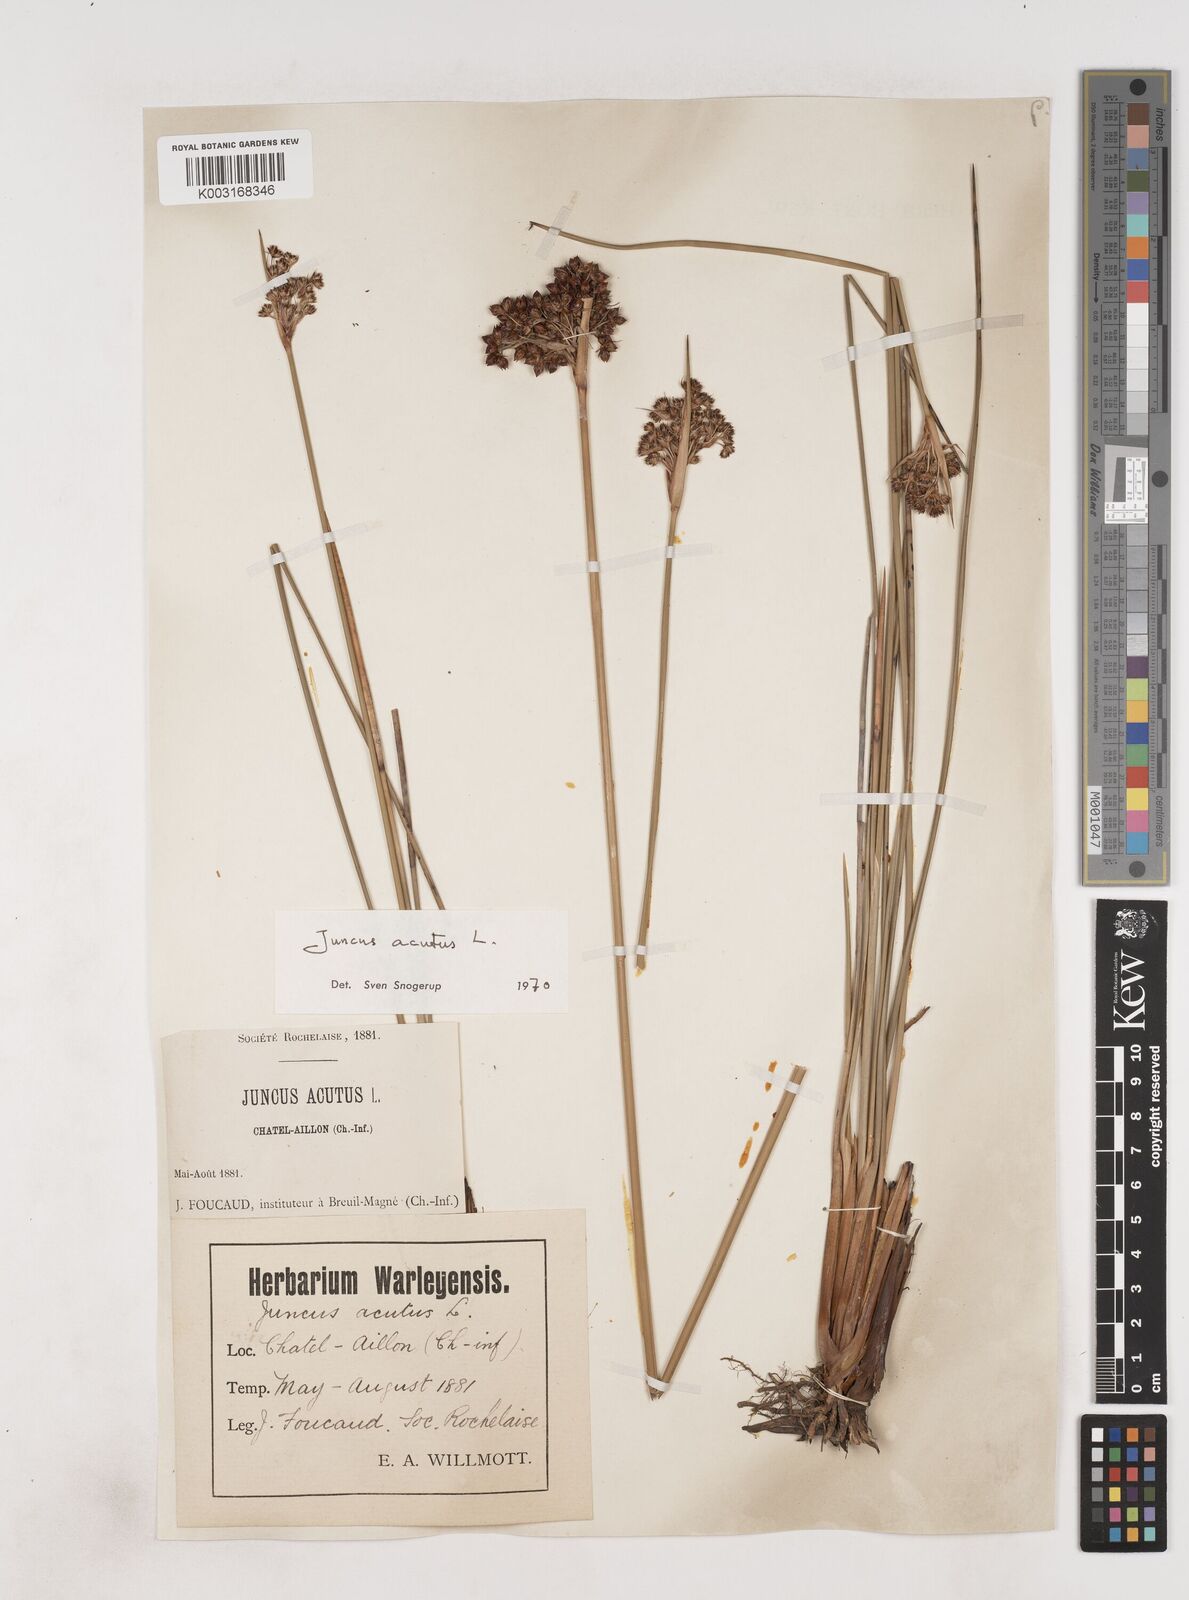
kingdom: Plantae
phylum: Tracheophyta
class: Liliopsida
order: Poales
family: Juncaceae
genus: Juncus
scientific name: Juncus acutus
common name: Sharp rush
